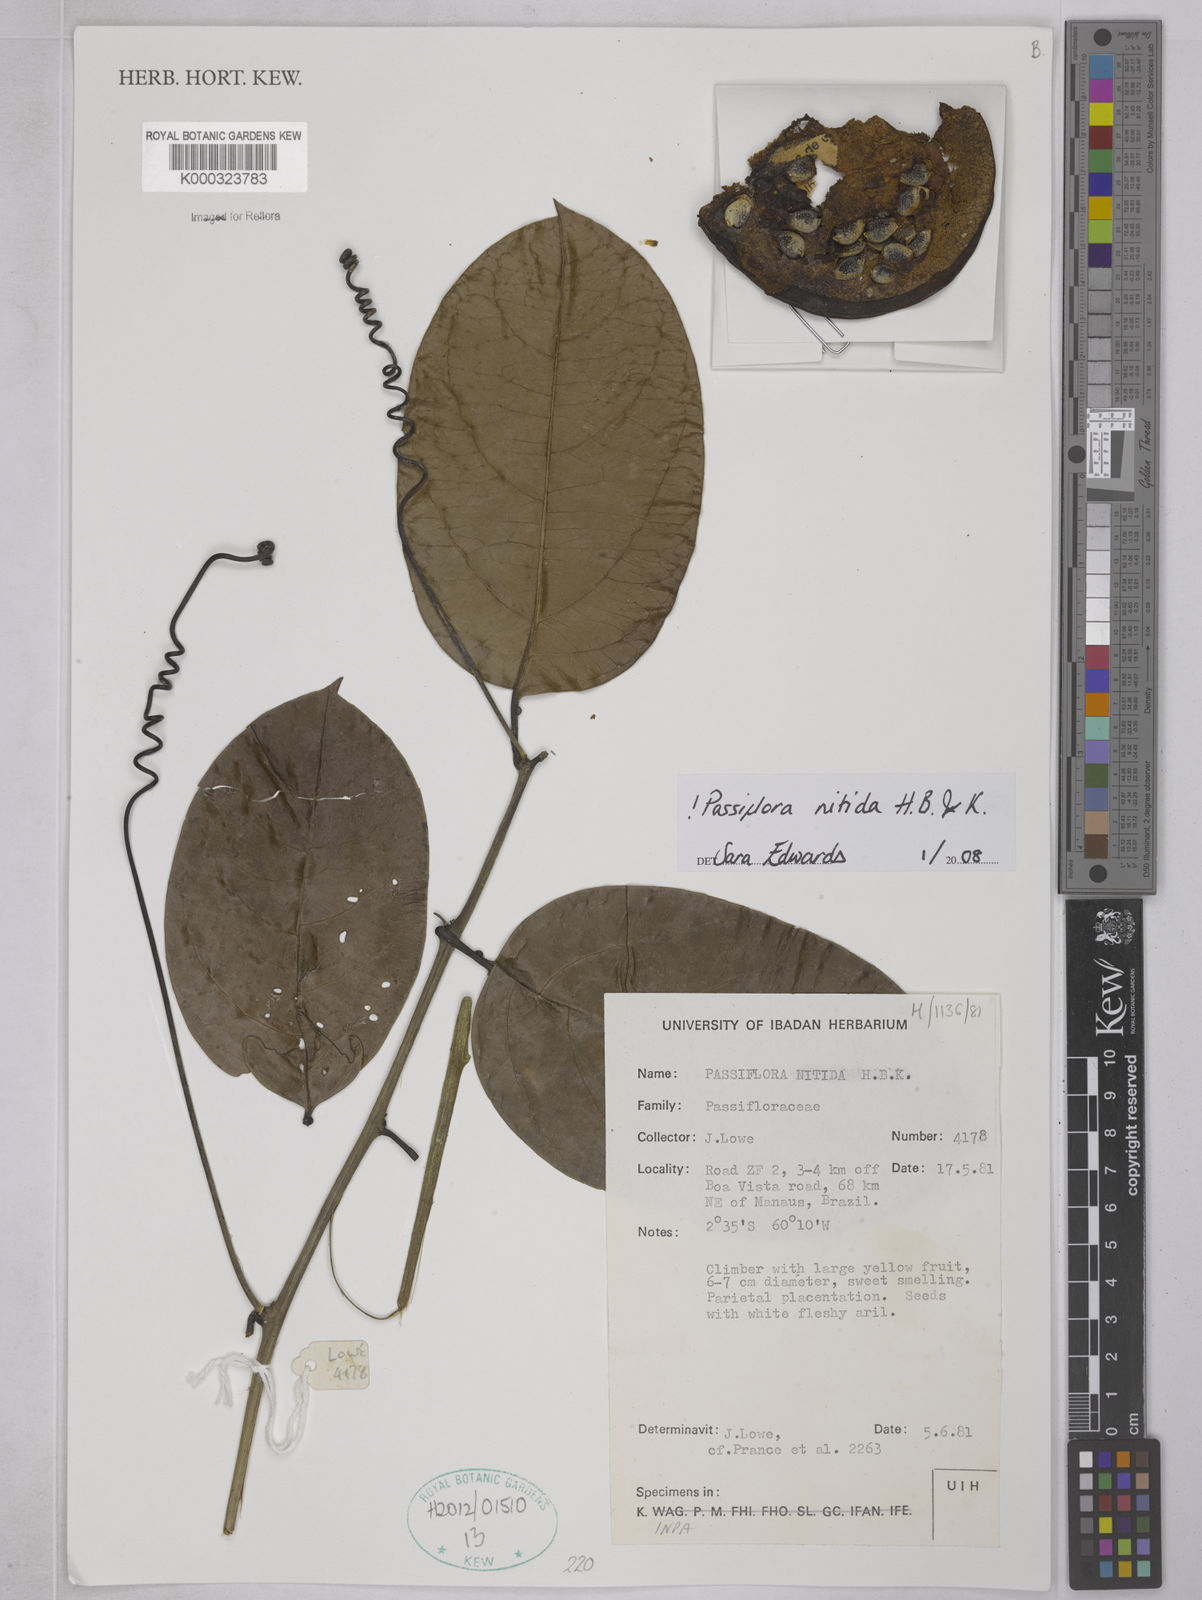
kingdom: Plantae
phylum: Tracheophyta
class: Magnoliopsida
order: Malpighiales
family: Passifloraceae
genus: Passiflora
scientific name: Passiflora
